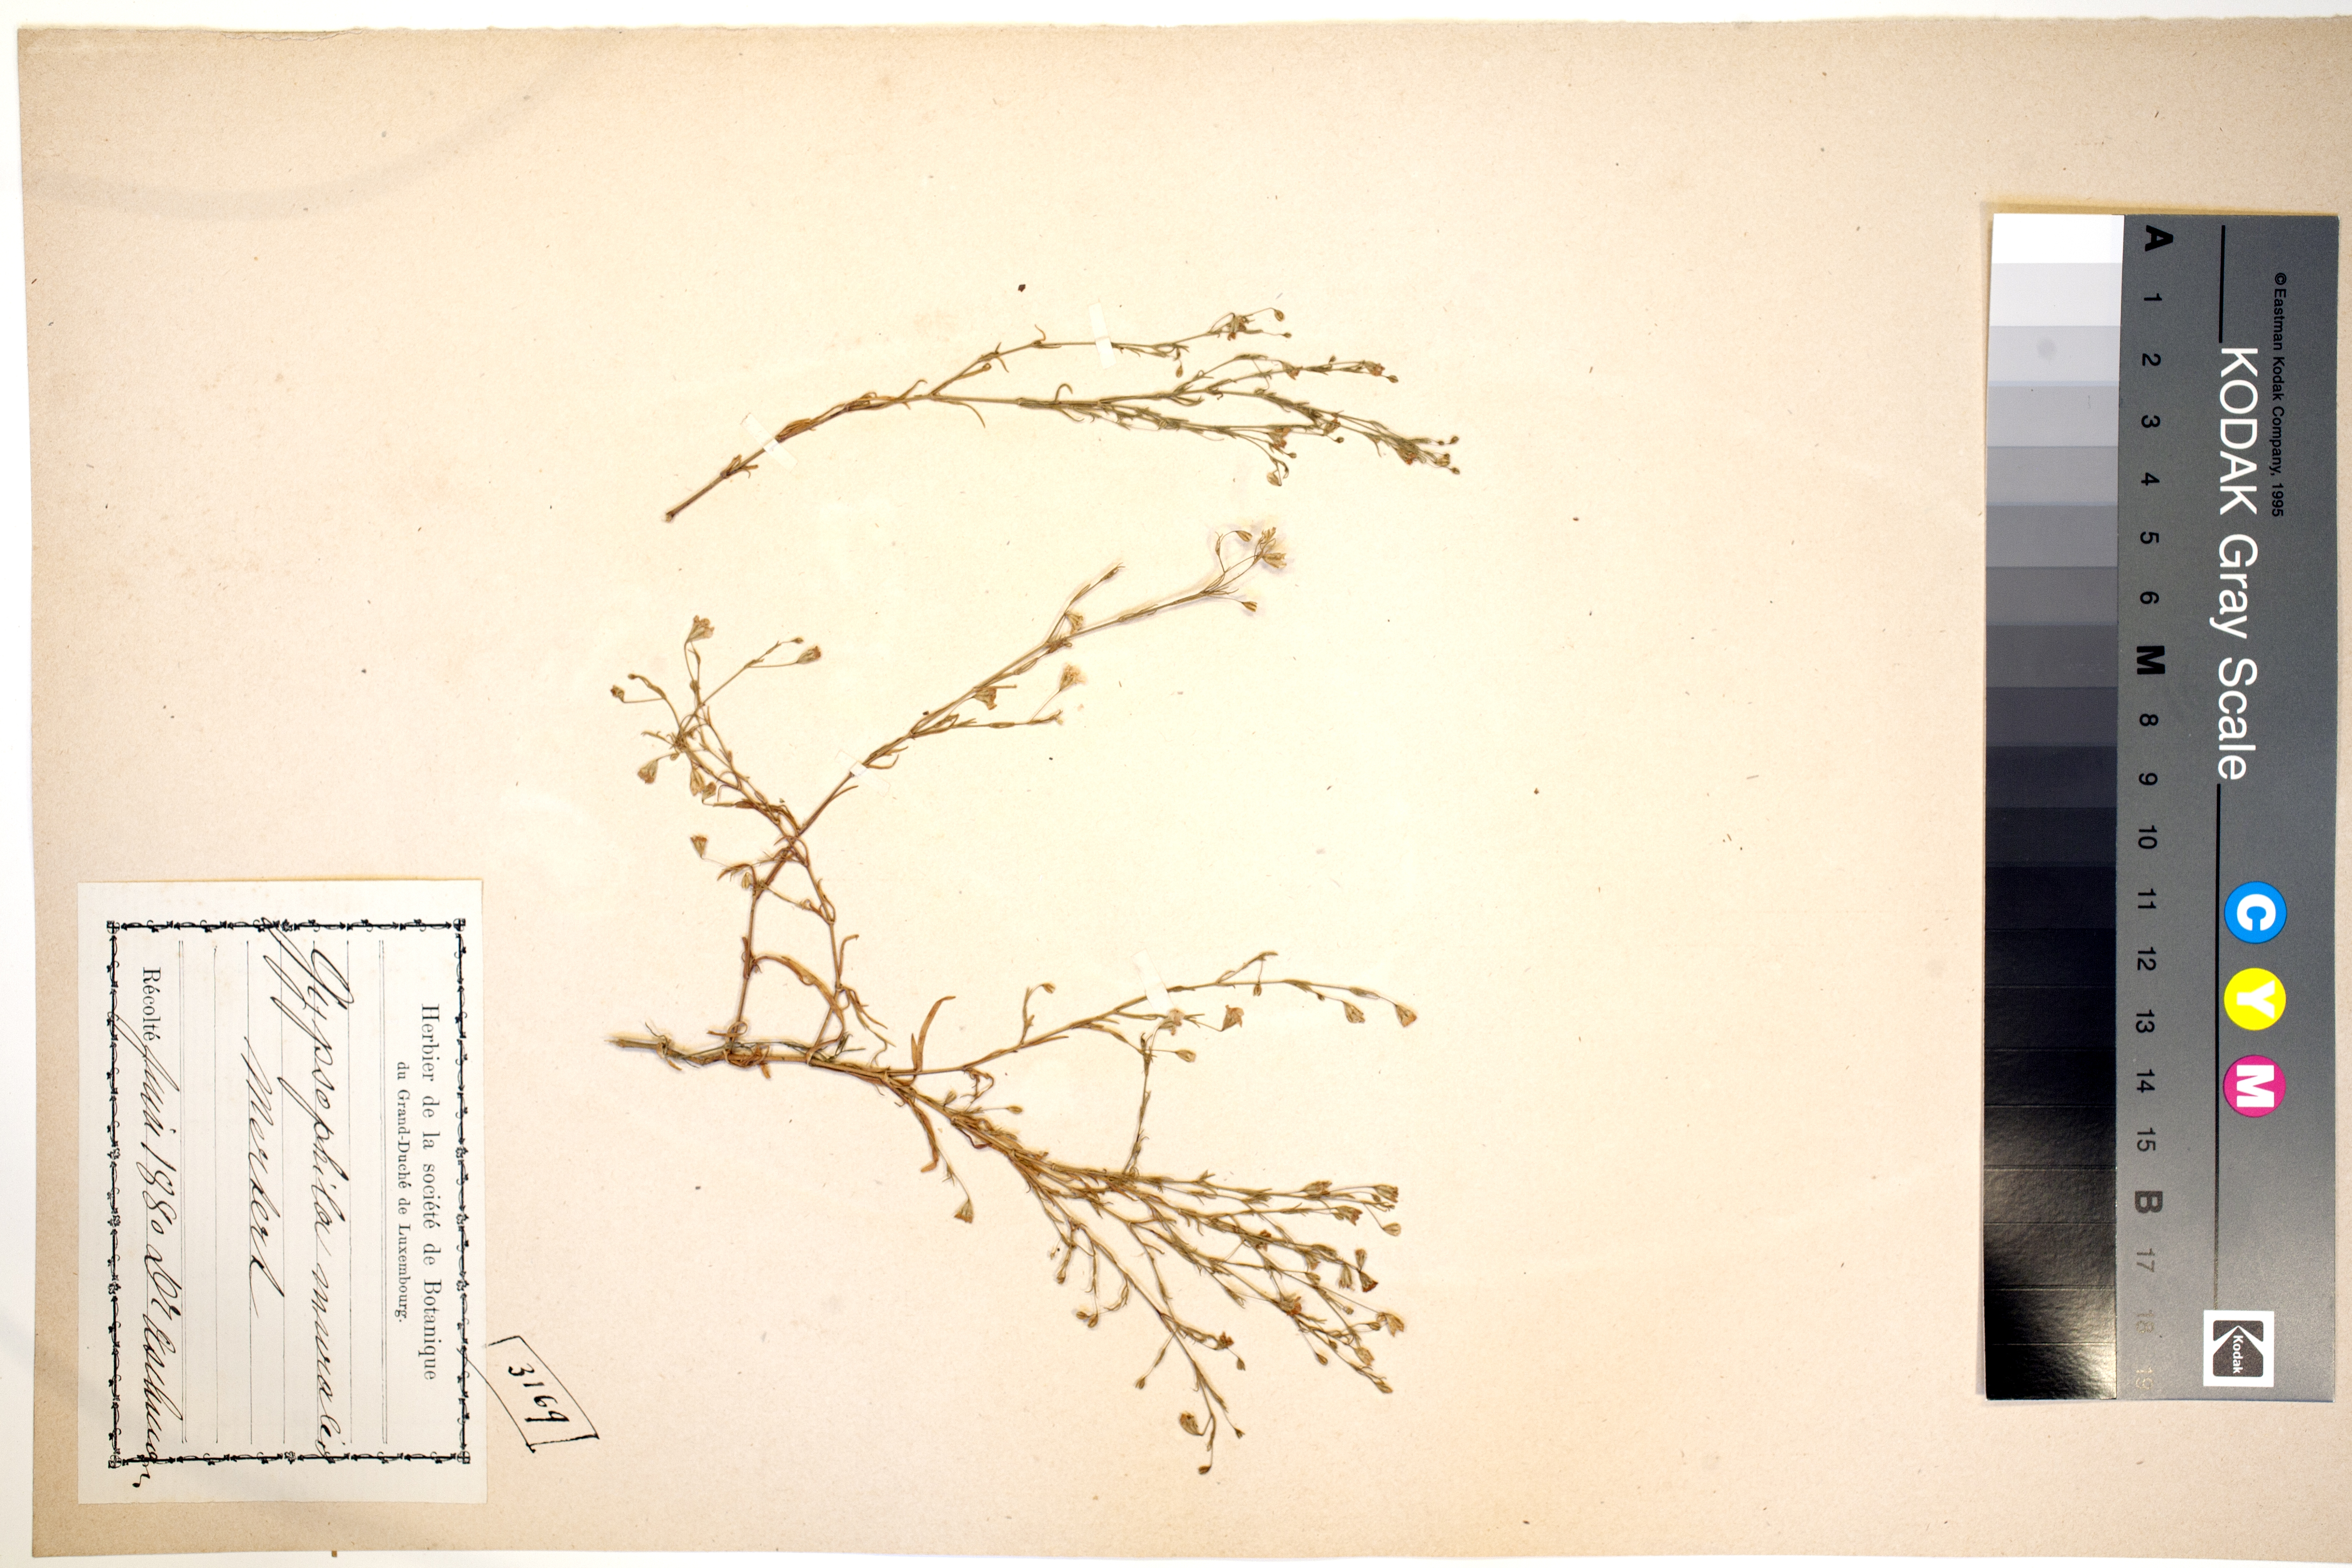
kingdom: Plantae
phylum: Tracheophyta
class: Magnoliopsida
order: Caryophyllales
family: Caryophyllaceae
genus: Psammophiliella
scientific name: Psammophiliella muralis
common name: Cushion baby's-breath
